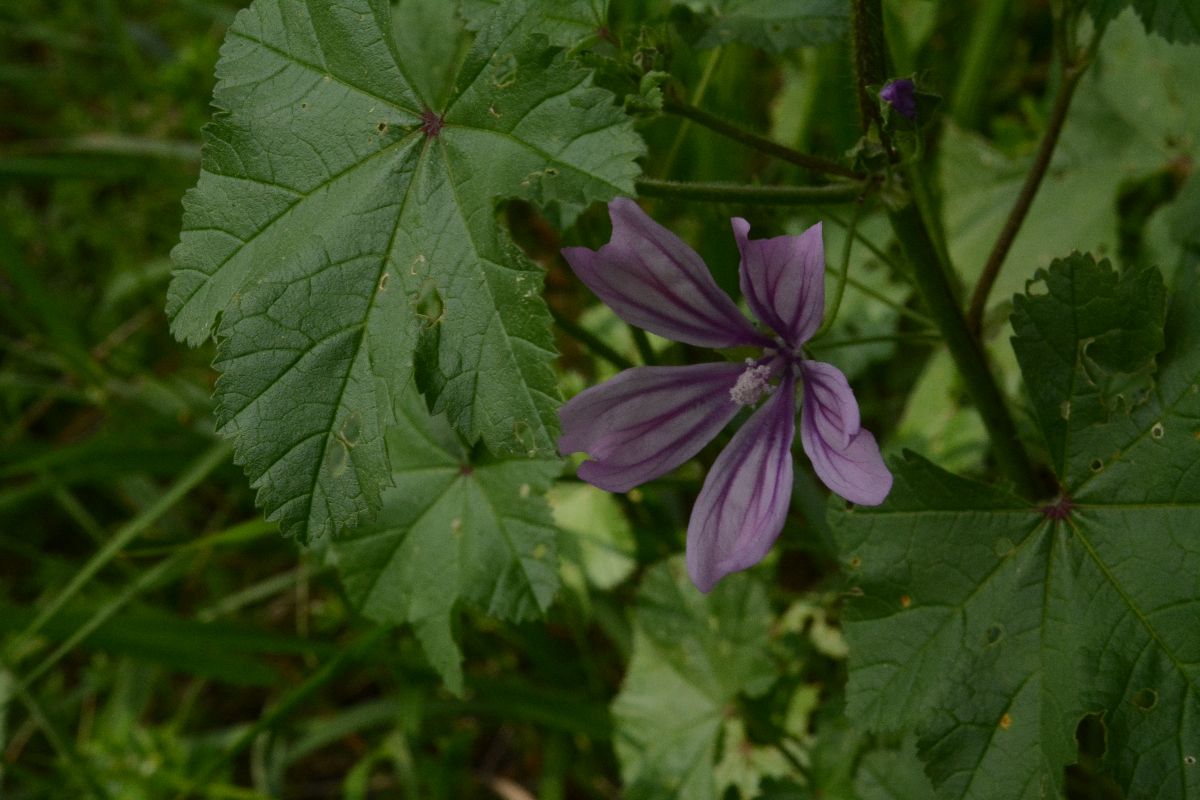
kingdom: Plantae
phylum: Tracheophyta
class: Magnoliopsida
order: Malvales
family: Malvaceae
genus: Malva
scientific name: Malva multiflora
